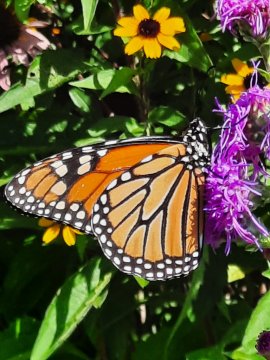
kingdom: Animalia
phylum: Arthropoda
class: Insecta
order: Lepidoptera
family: Nymphalidae
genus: Danaus
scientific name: Danaus plexippus
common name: Monarch
